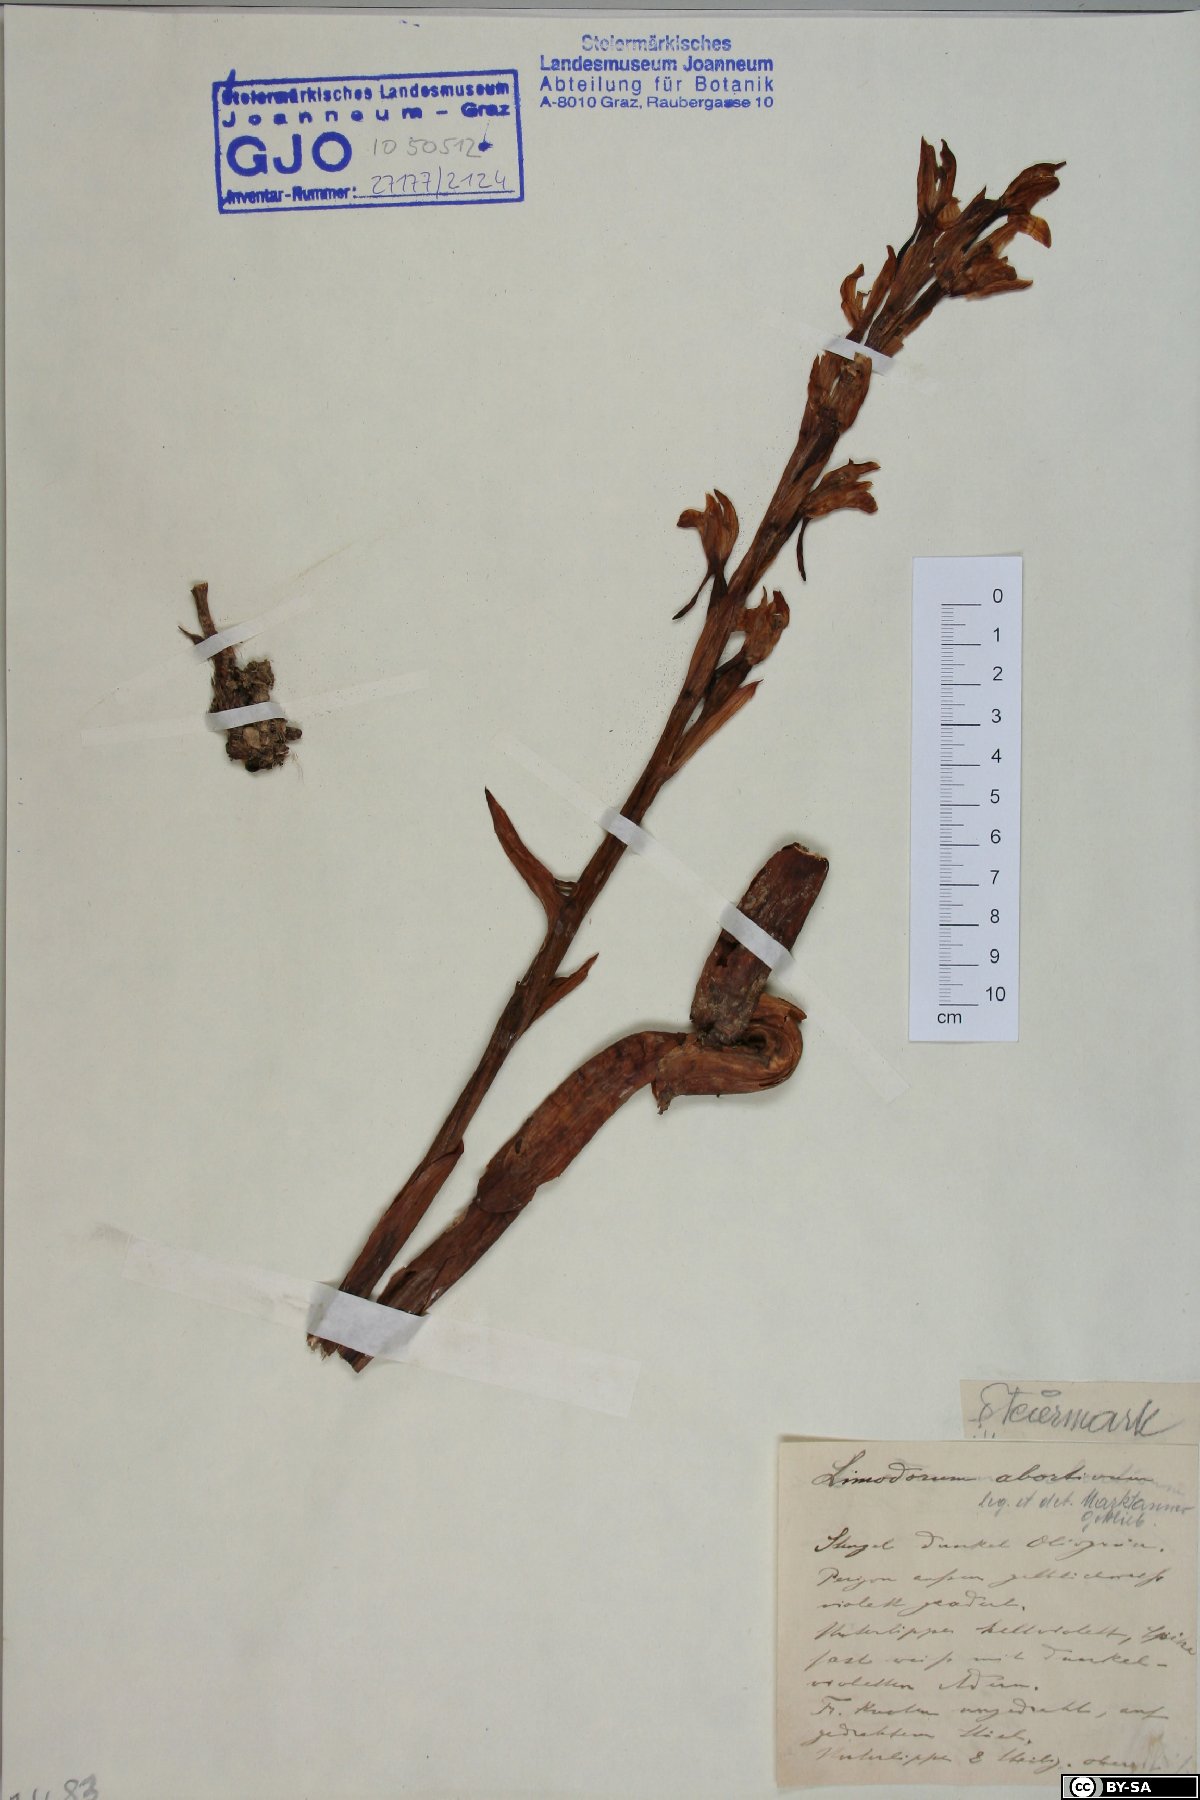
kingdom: Plantae
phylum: Tracheophyta
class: Liliopsida
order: Asparagales
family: Orchidaceae
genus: Limodorum
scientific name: Limodorum abortivum
